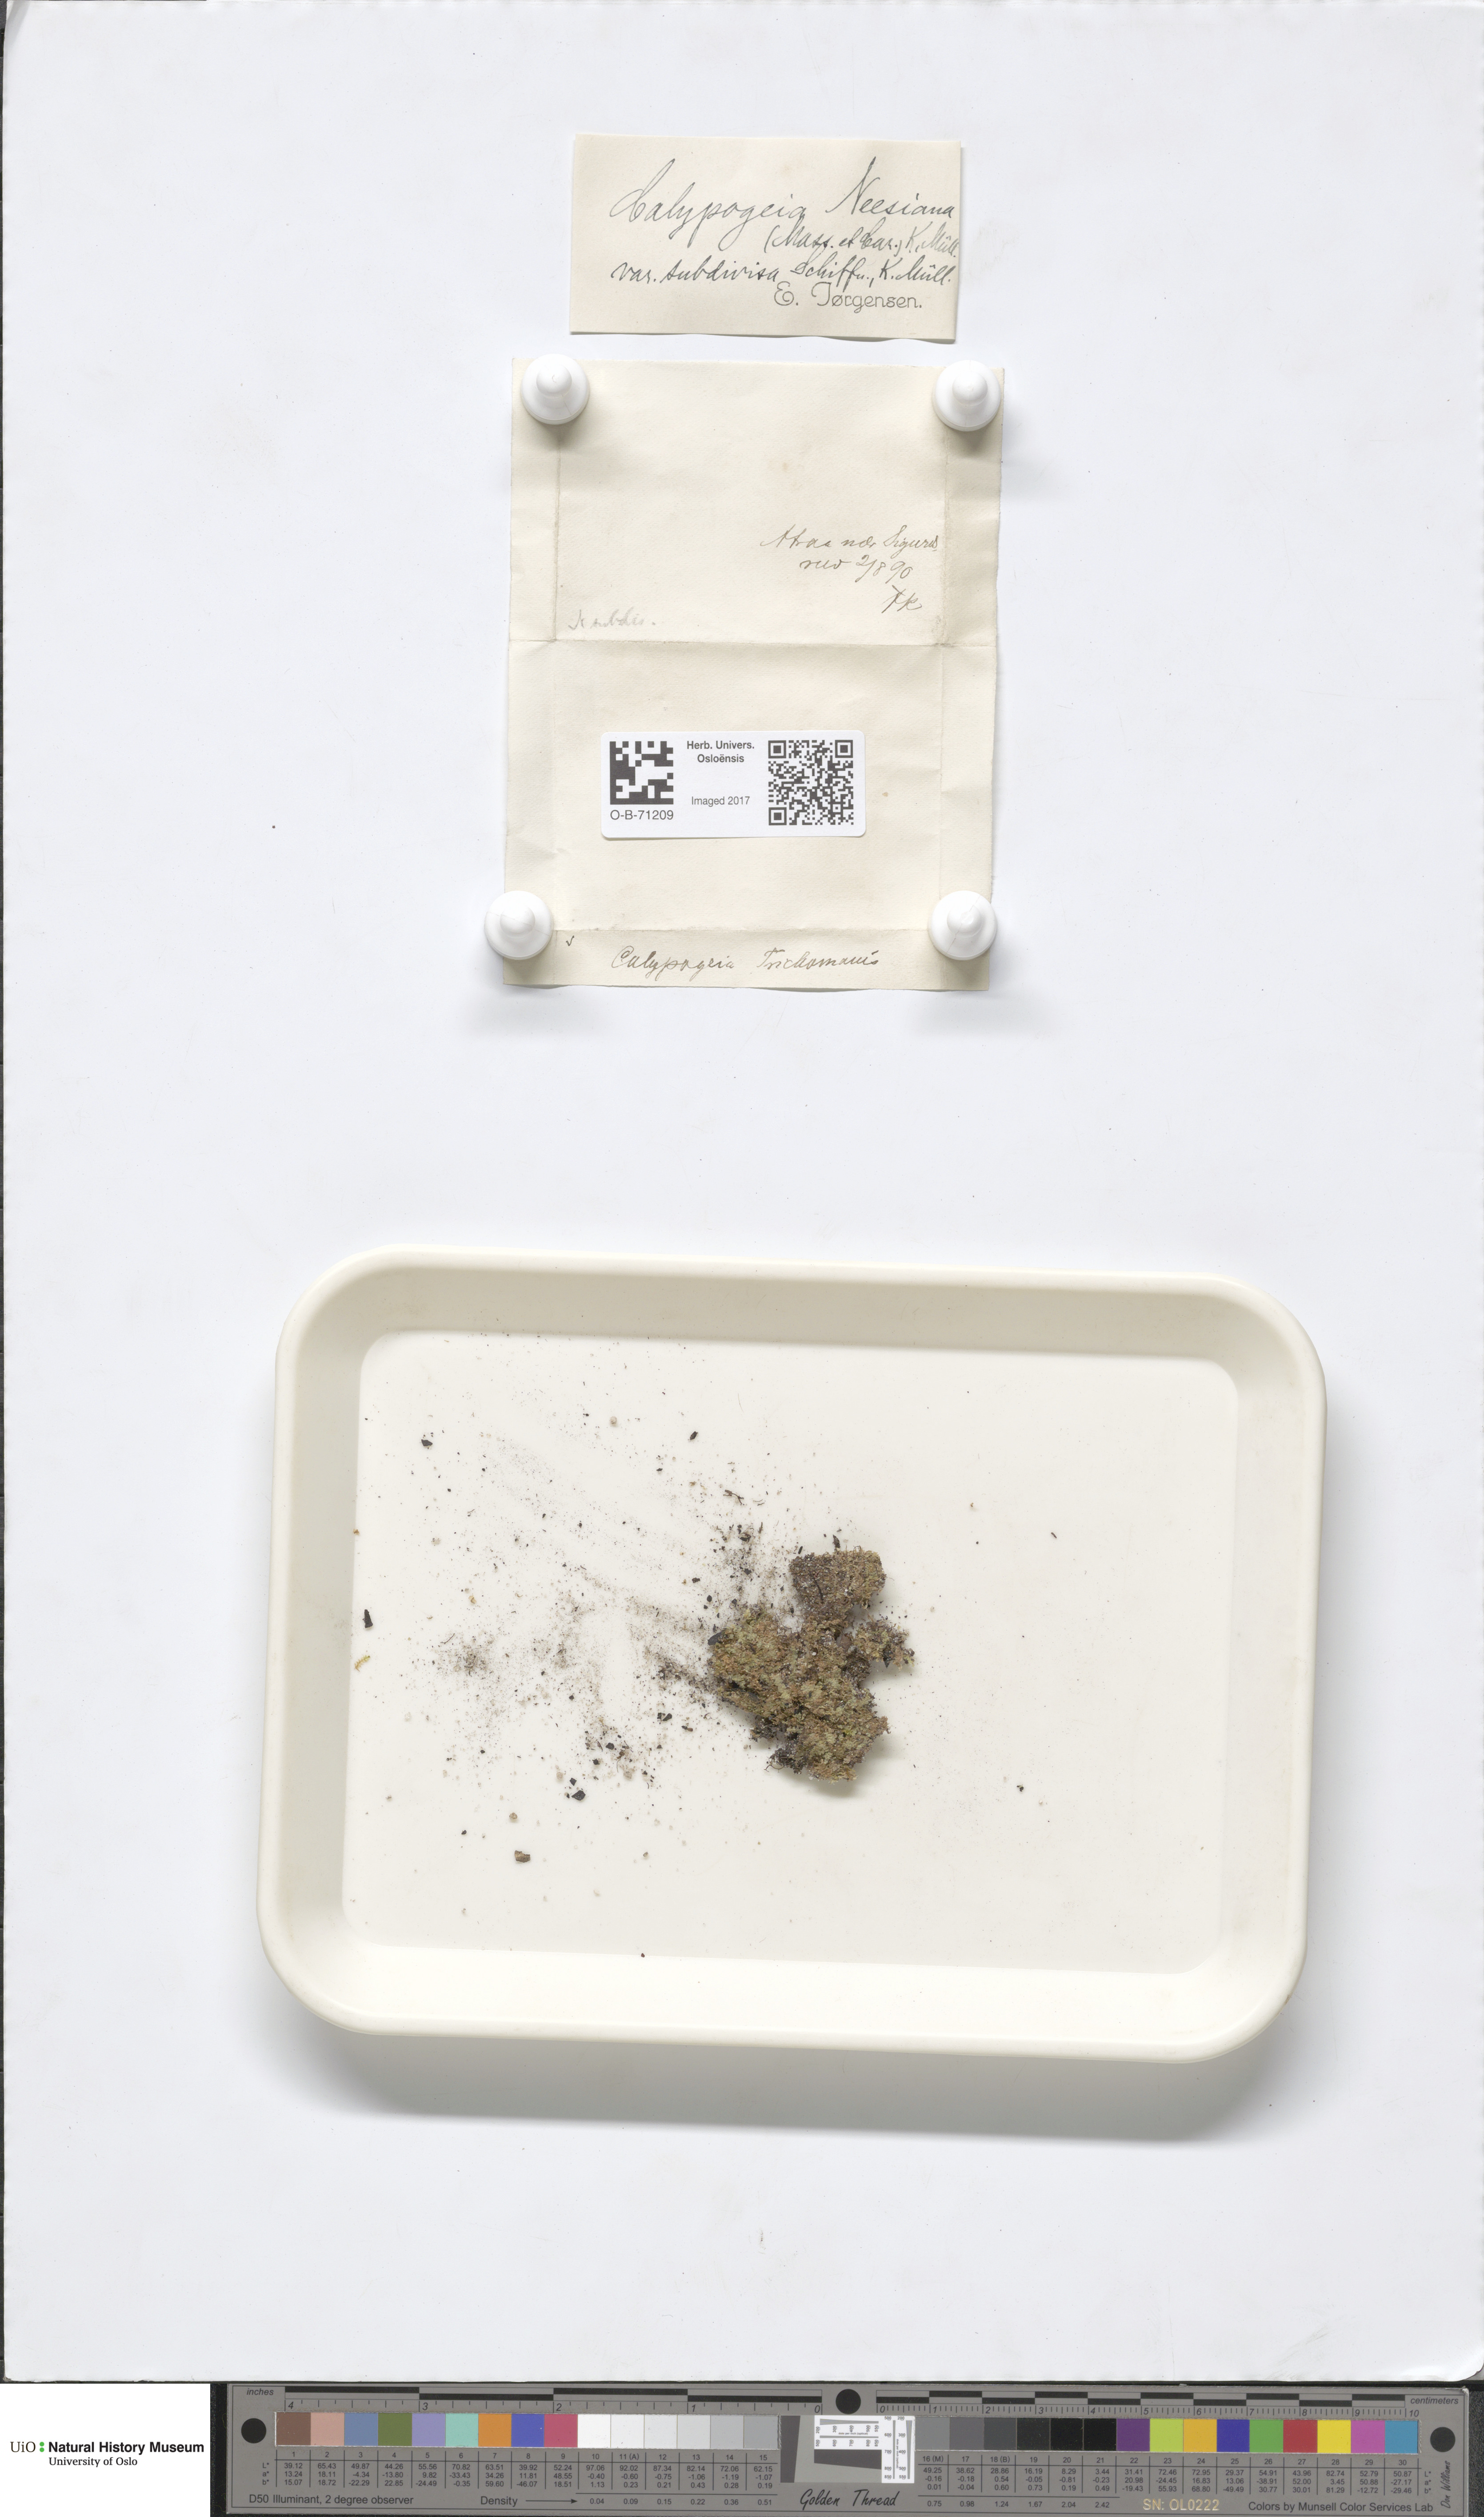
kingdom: Plantae
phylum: Marchantiophyta
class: Jungermanniopsida
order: Jungermanniales
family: Calypogeiaceae
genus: Calypogeia
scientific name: Calypogeia neesiana
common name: Nees  pouchwort
